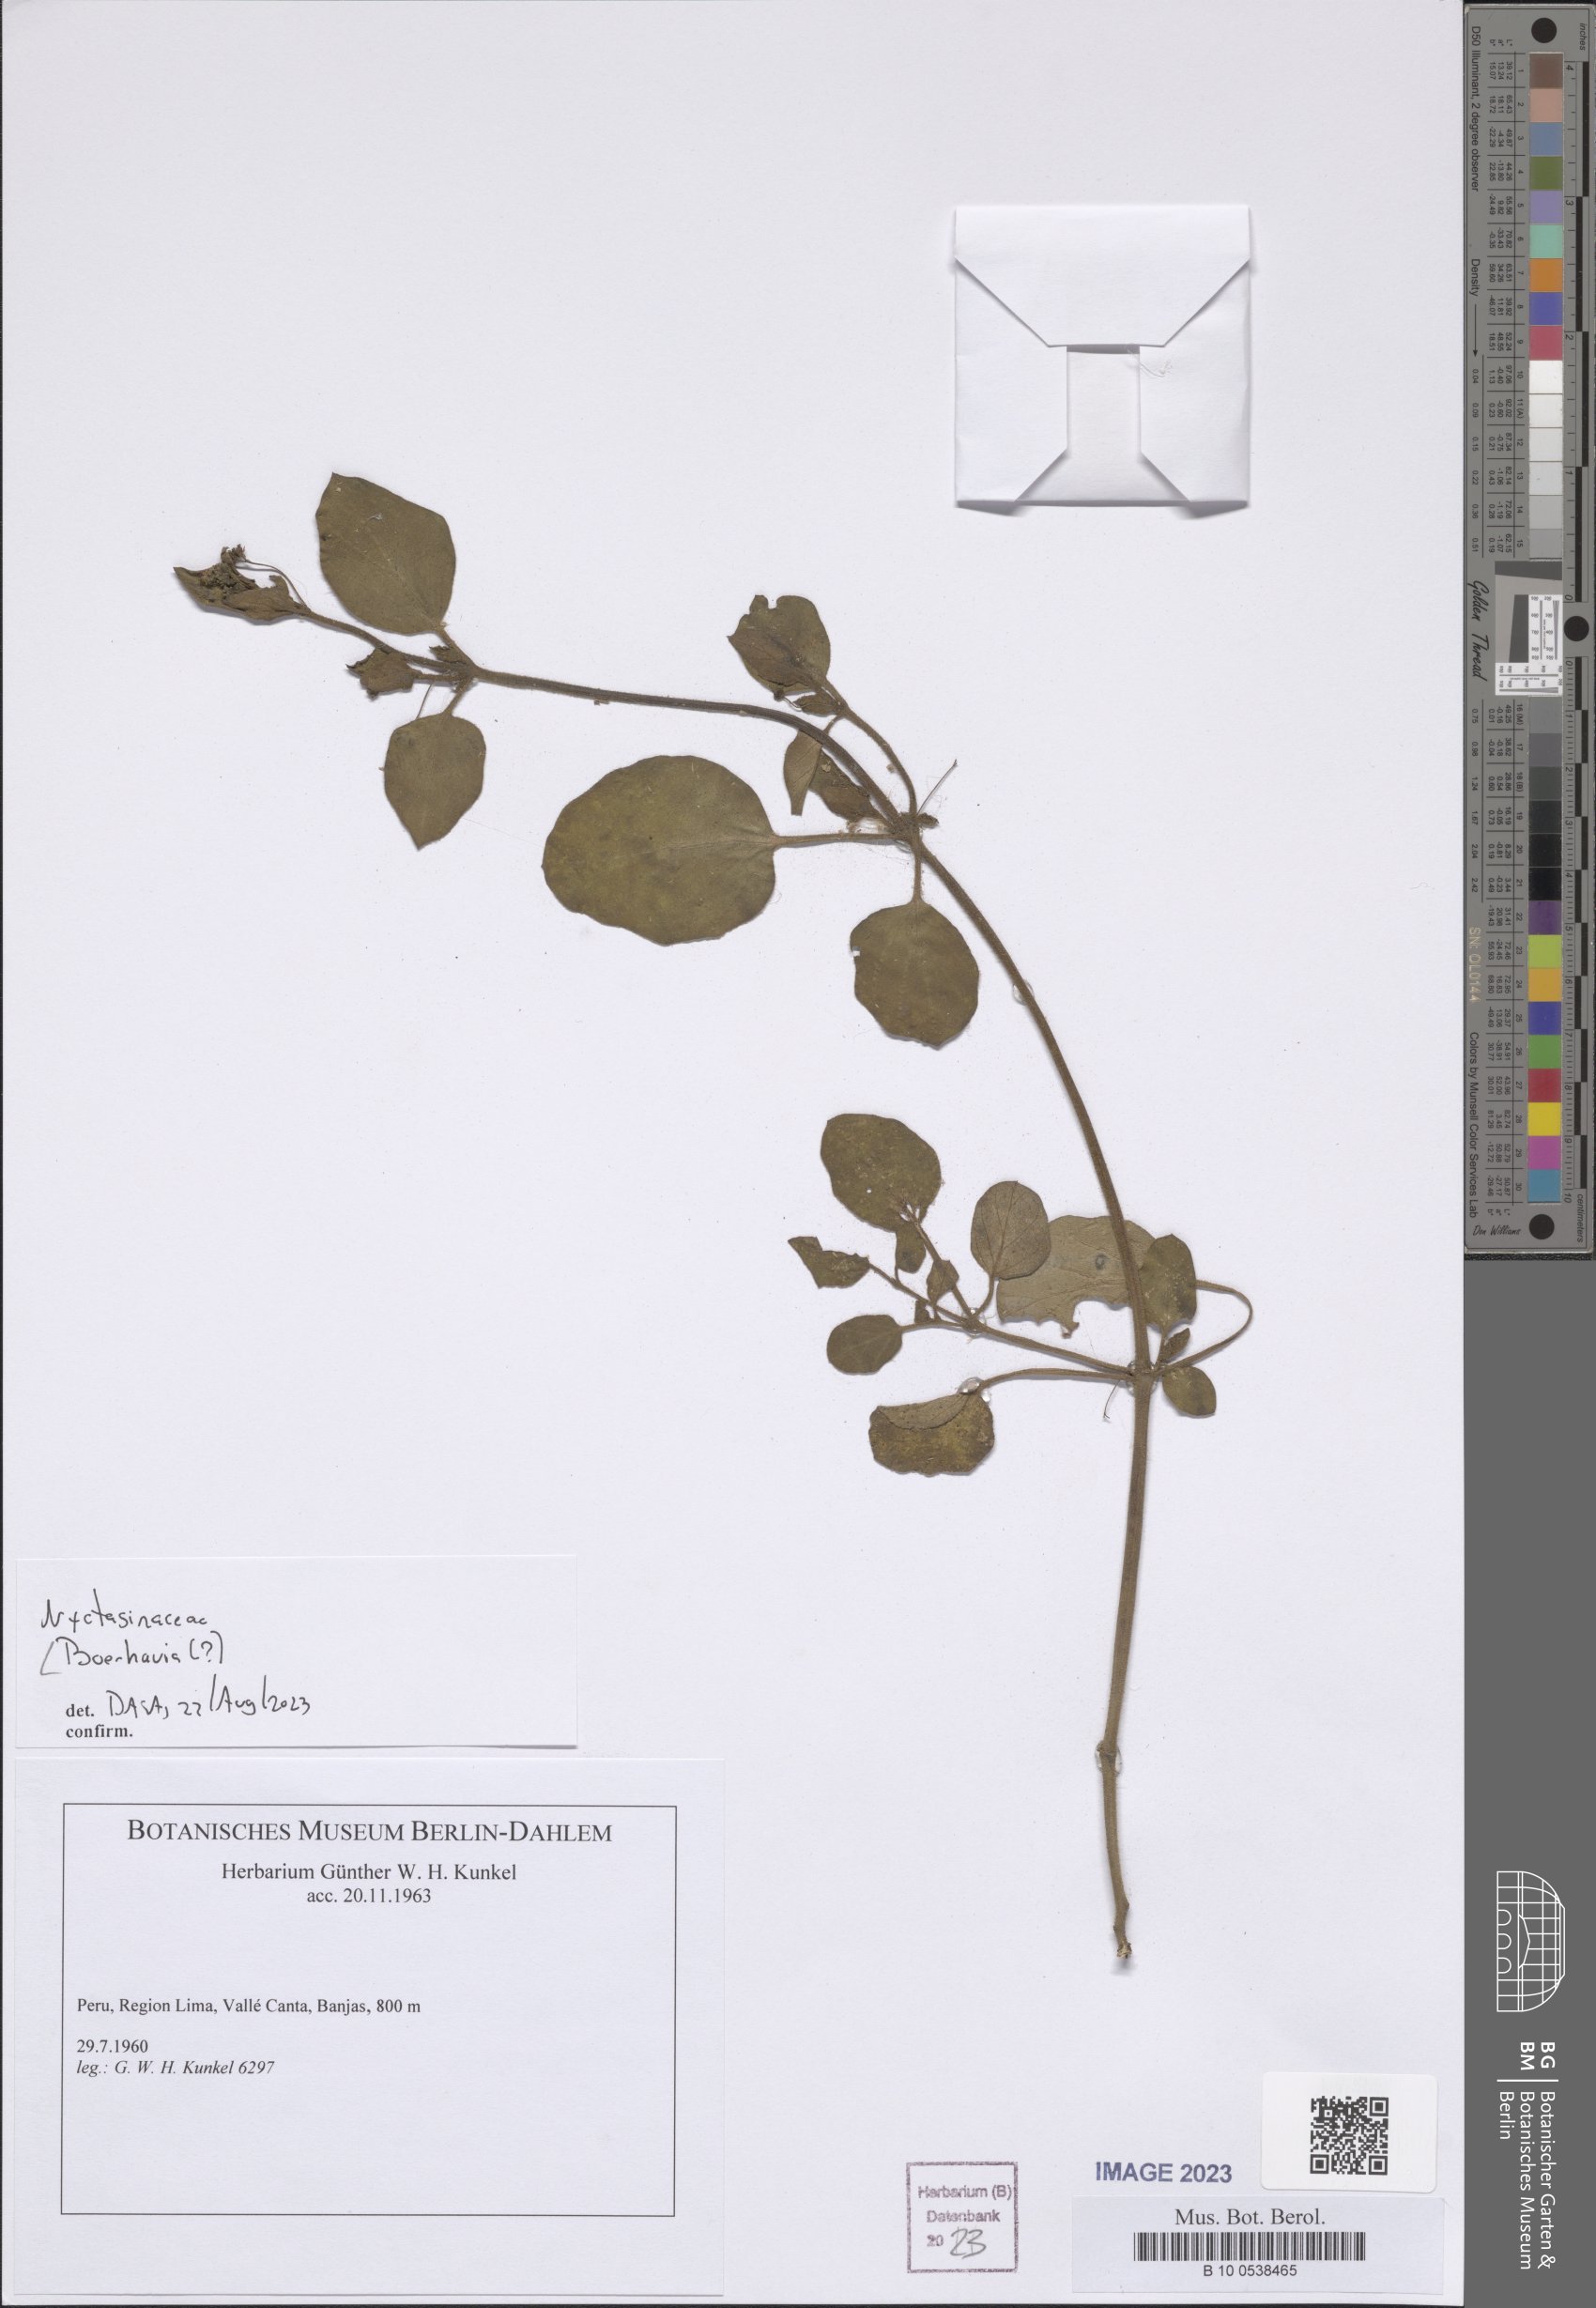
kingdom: Plantae
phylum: Tracheophyta
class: Magnoliopsida
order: Caryophyllales
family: Nyctaginaceae
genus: Boerhavia
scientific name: Boerhavia
